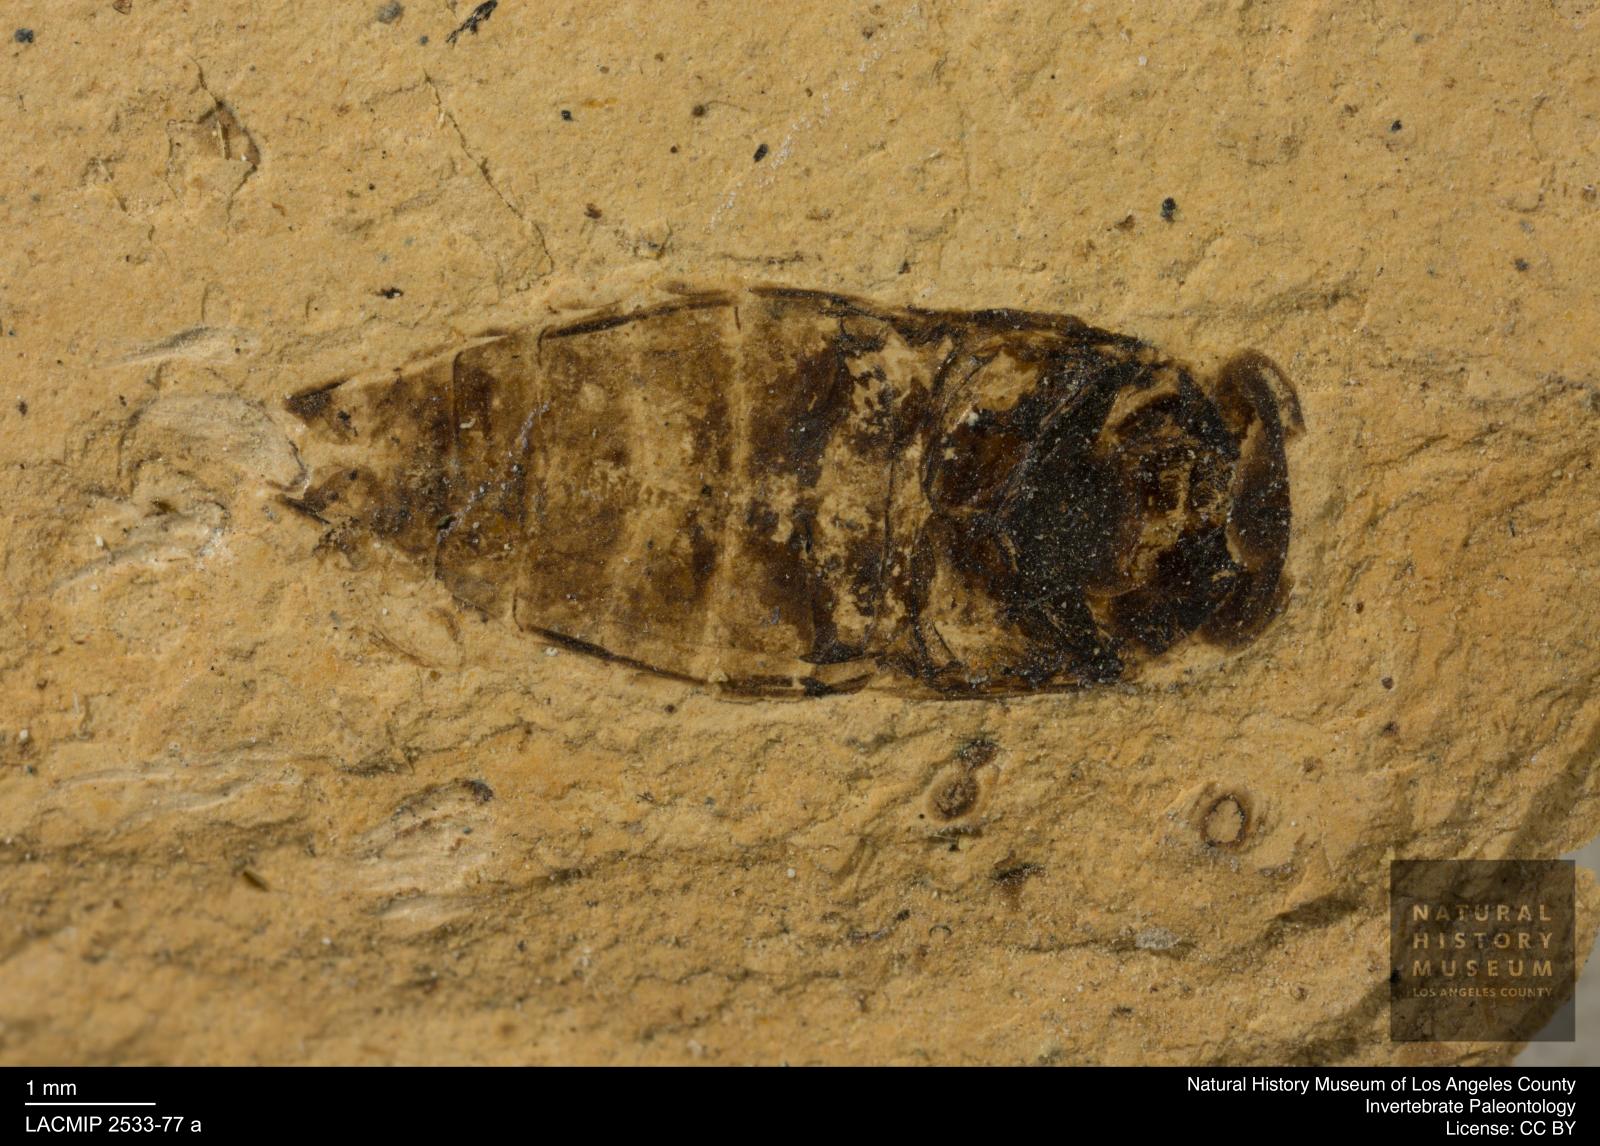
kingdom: Animalia
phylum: Arthropoda
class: Insecta
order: Hemiptera
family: Corixidae
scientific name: Corixidae
